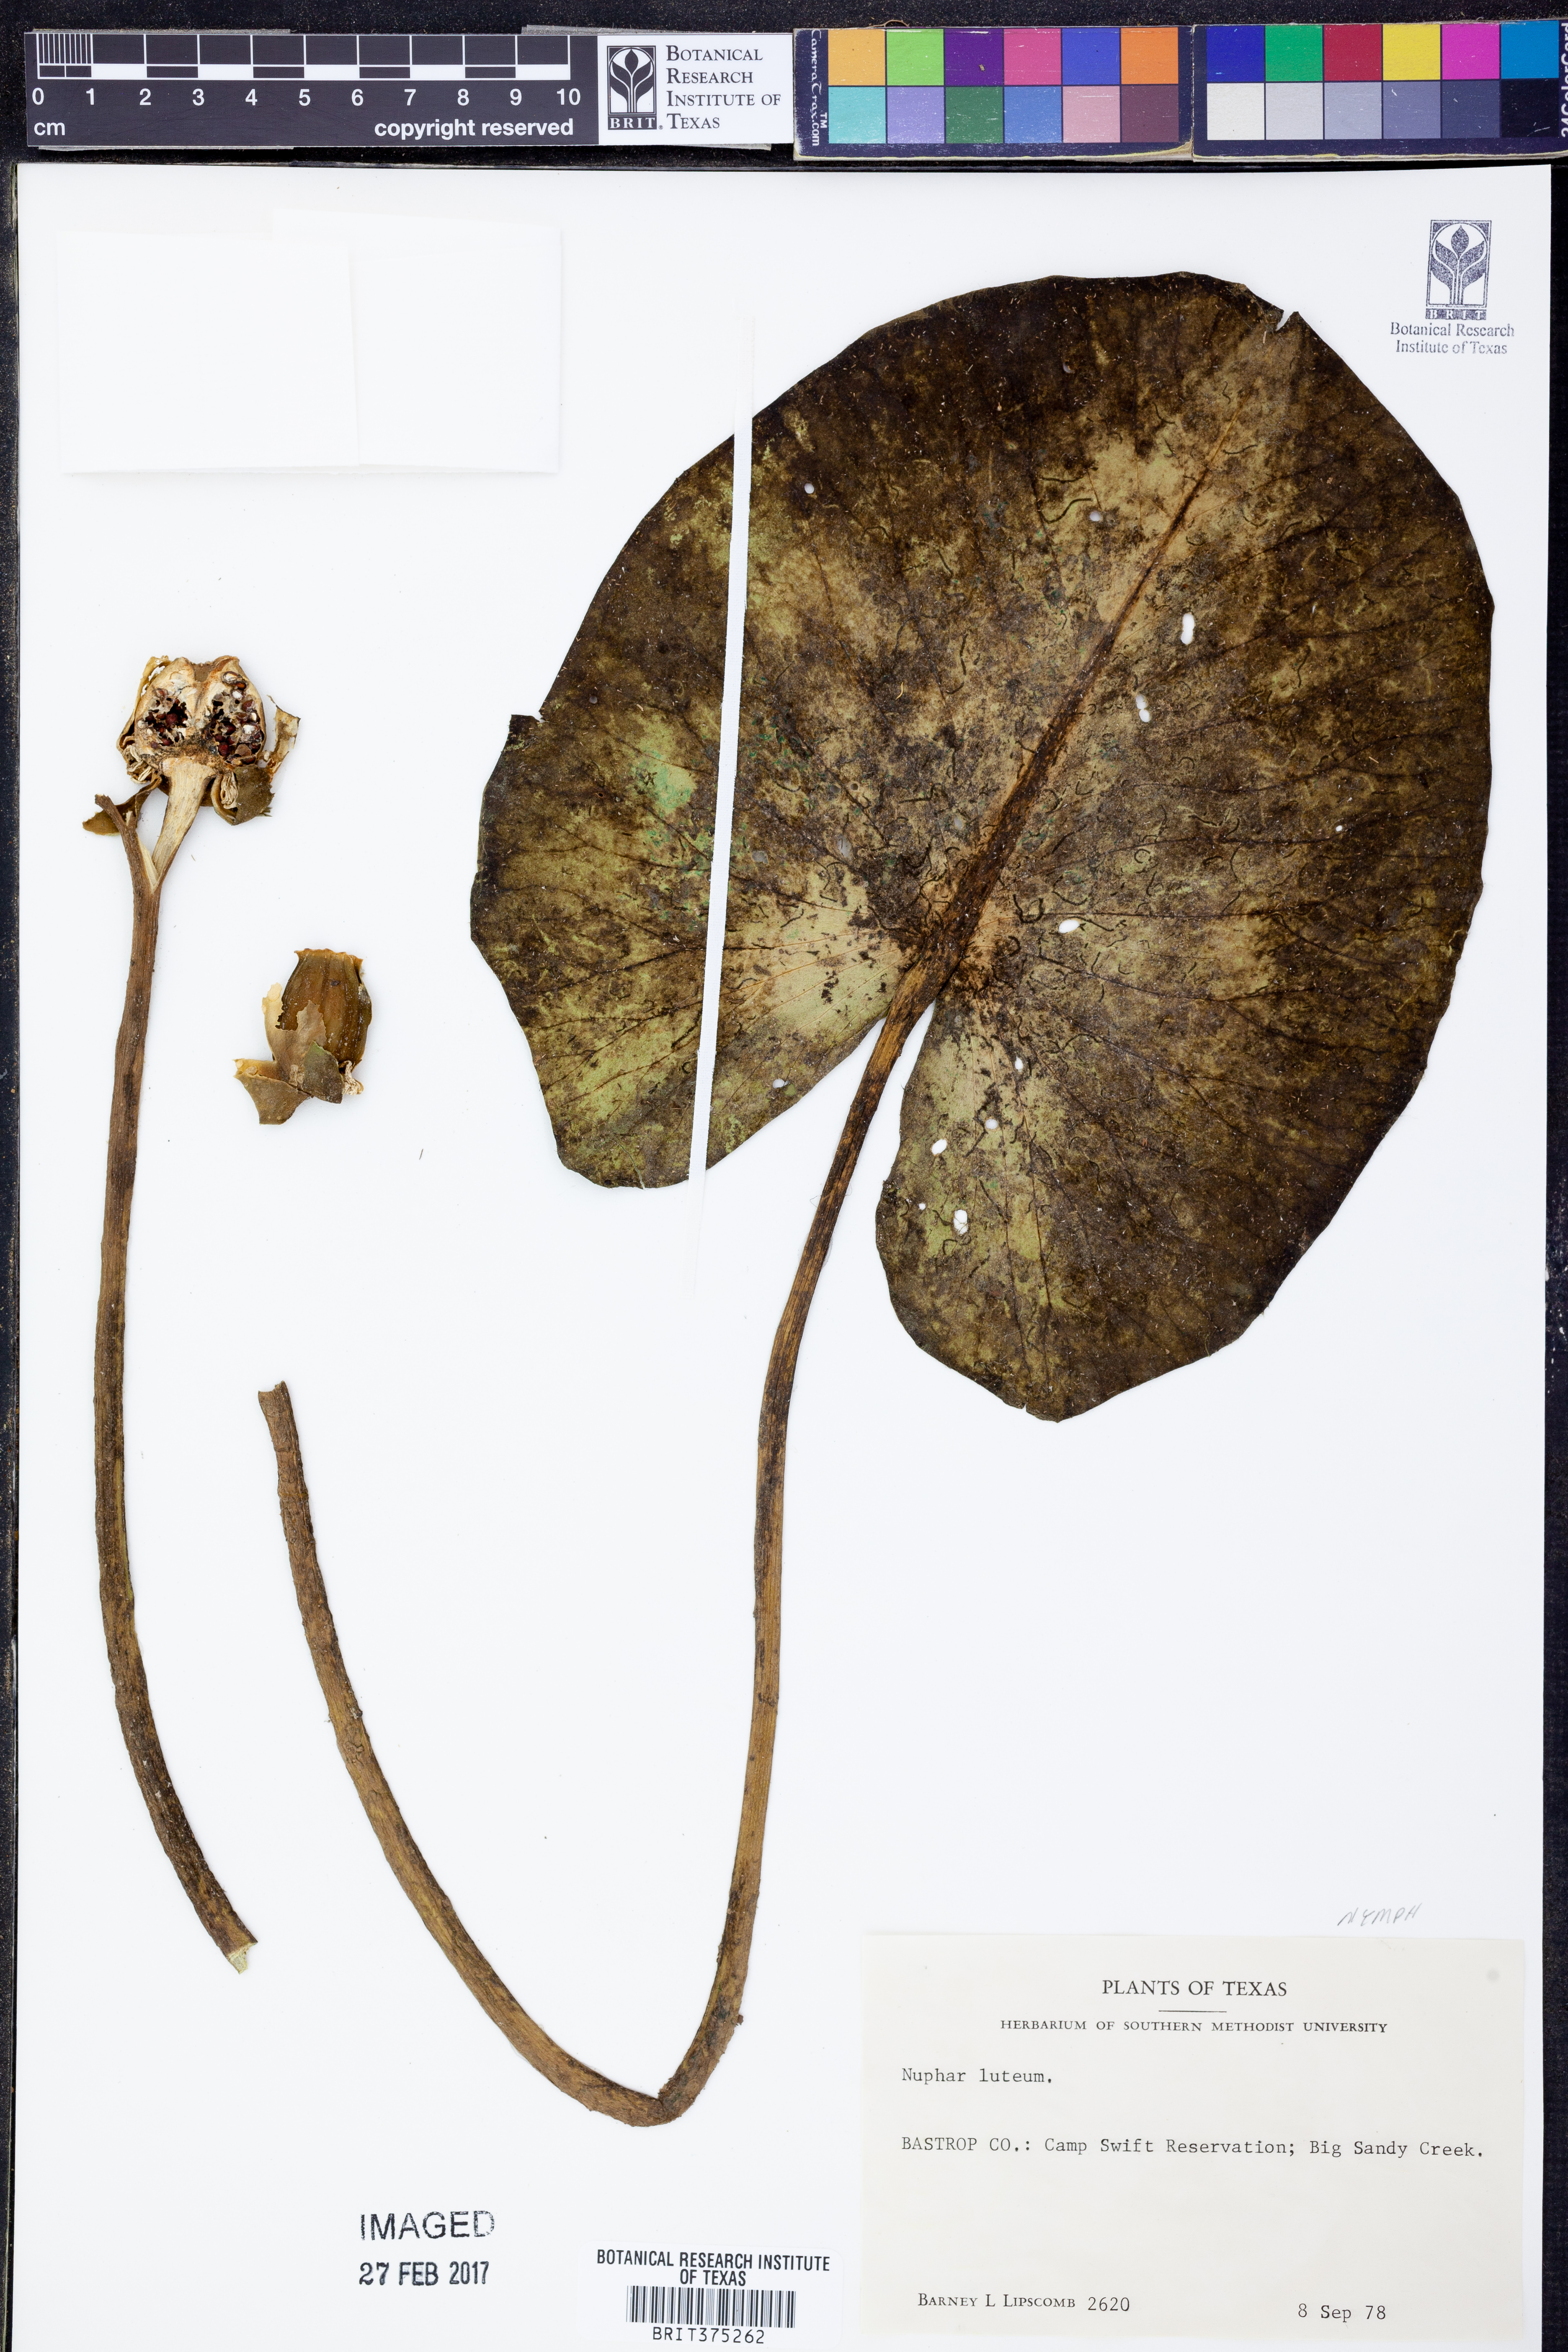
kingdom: Plantae
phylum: Tracheophyta
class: Magnoliopsida
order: Nymphaeales
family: Nymphaeaceae
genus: Nuphar
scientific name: Nuphar lutea
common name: Yellow water-lily
